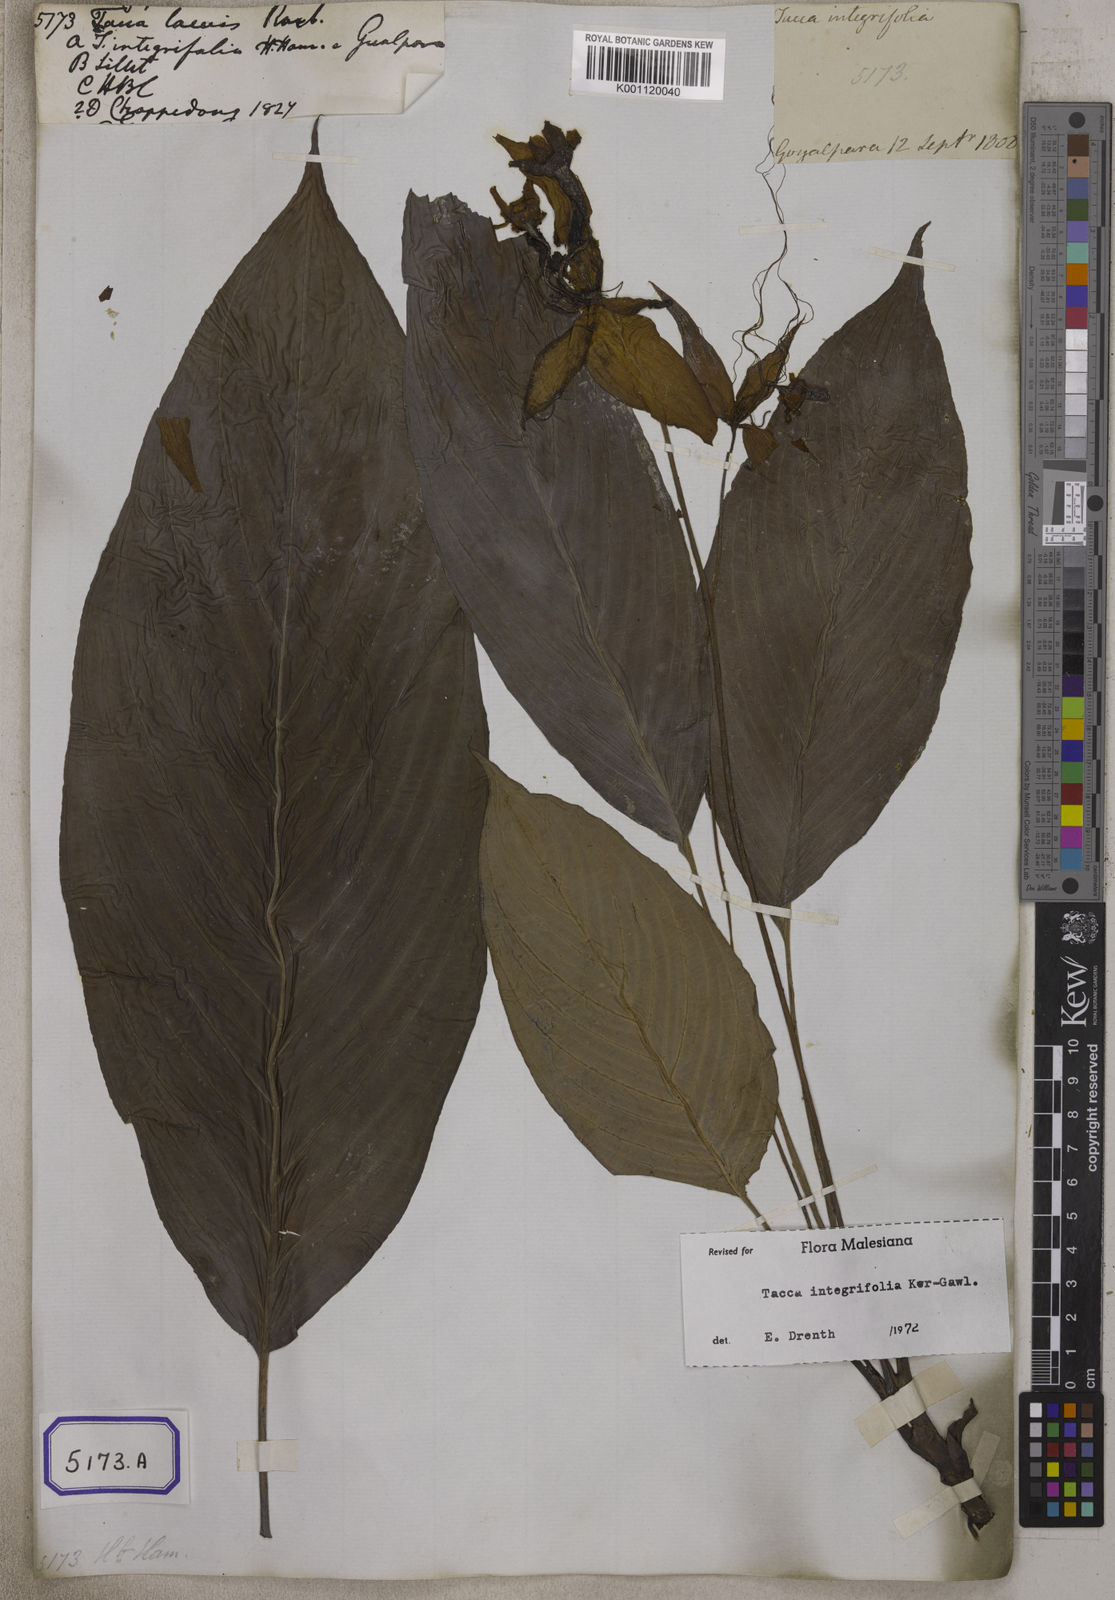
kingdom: Plantae
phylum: Tracheophyta
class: Liliopsida
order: Dioscoreales
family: Dioscoreaceae
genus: Tacca
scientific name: Tacca integrifolia
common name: Batplant
